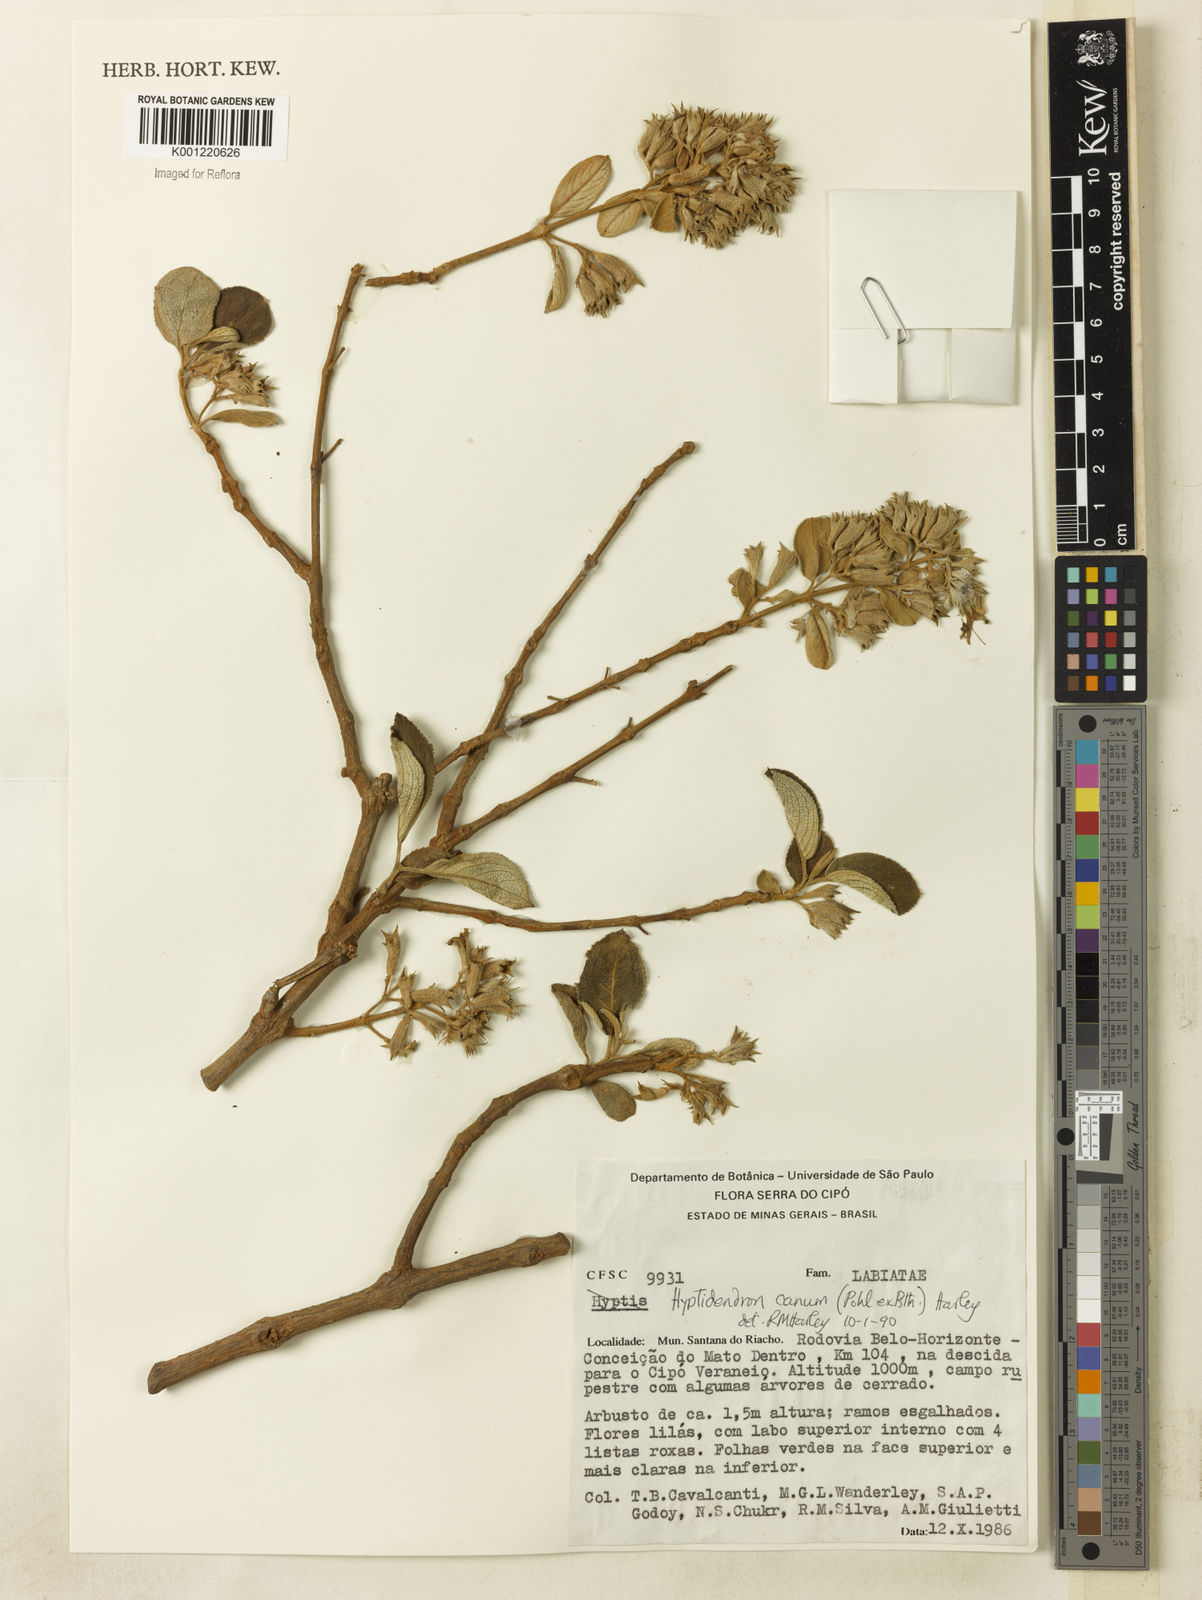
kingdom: Plantae
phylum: Tracheophyta
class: Magnoliopsida
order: Lamiales
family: Lamiaceae
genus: Hyptidendron
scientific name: Hyptidendron canum
